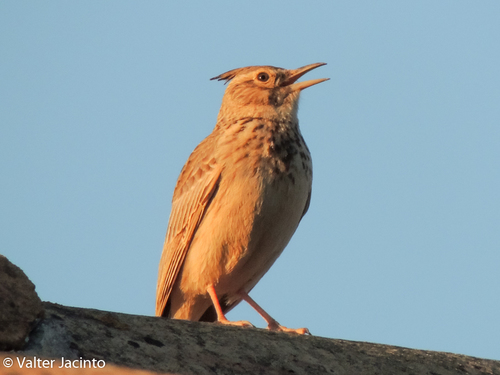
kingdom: Animalia
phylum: Chordata
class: Aves
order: Passeriformes
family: Alaudidae
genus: Galerida
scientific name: Galerida cristata
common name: Crested lark
